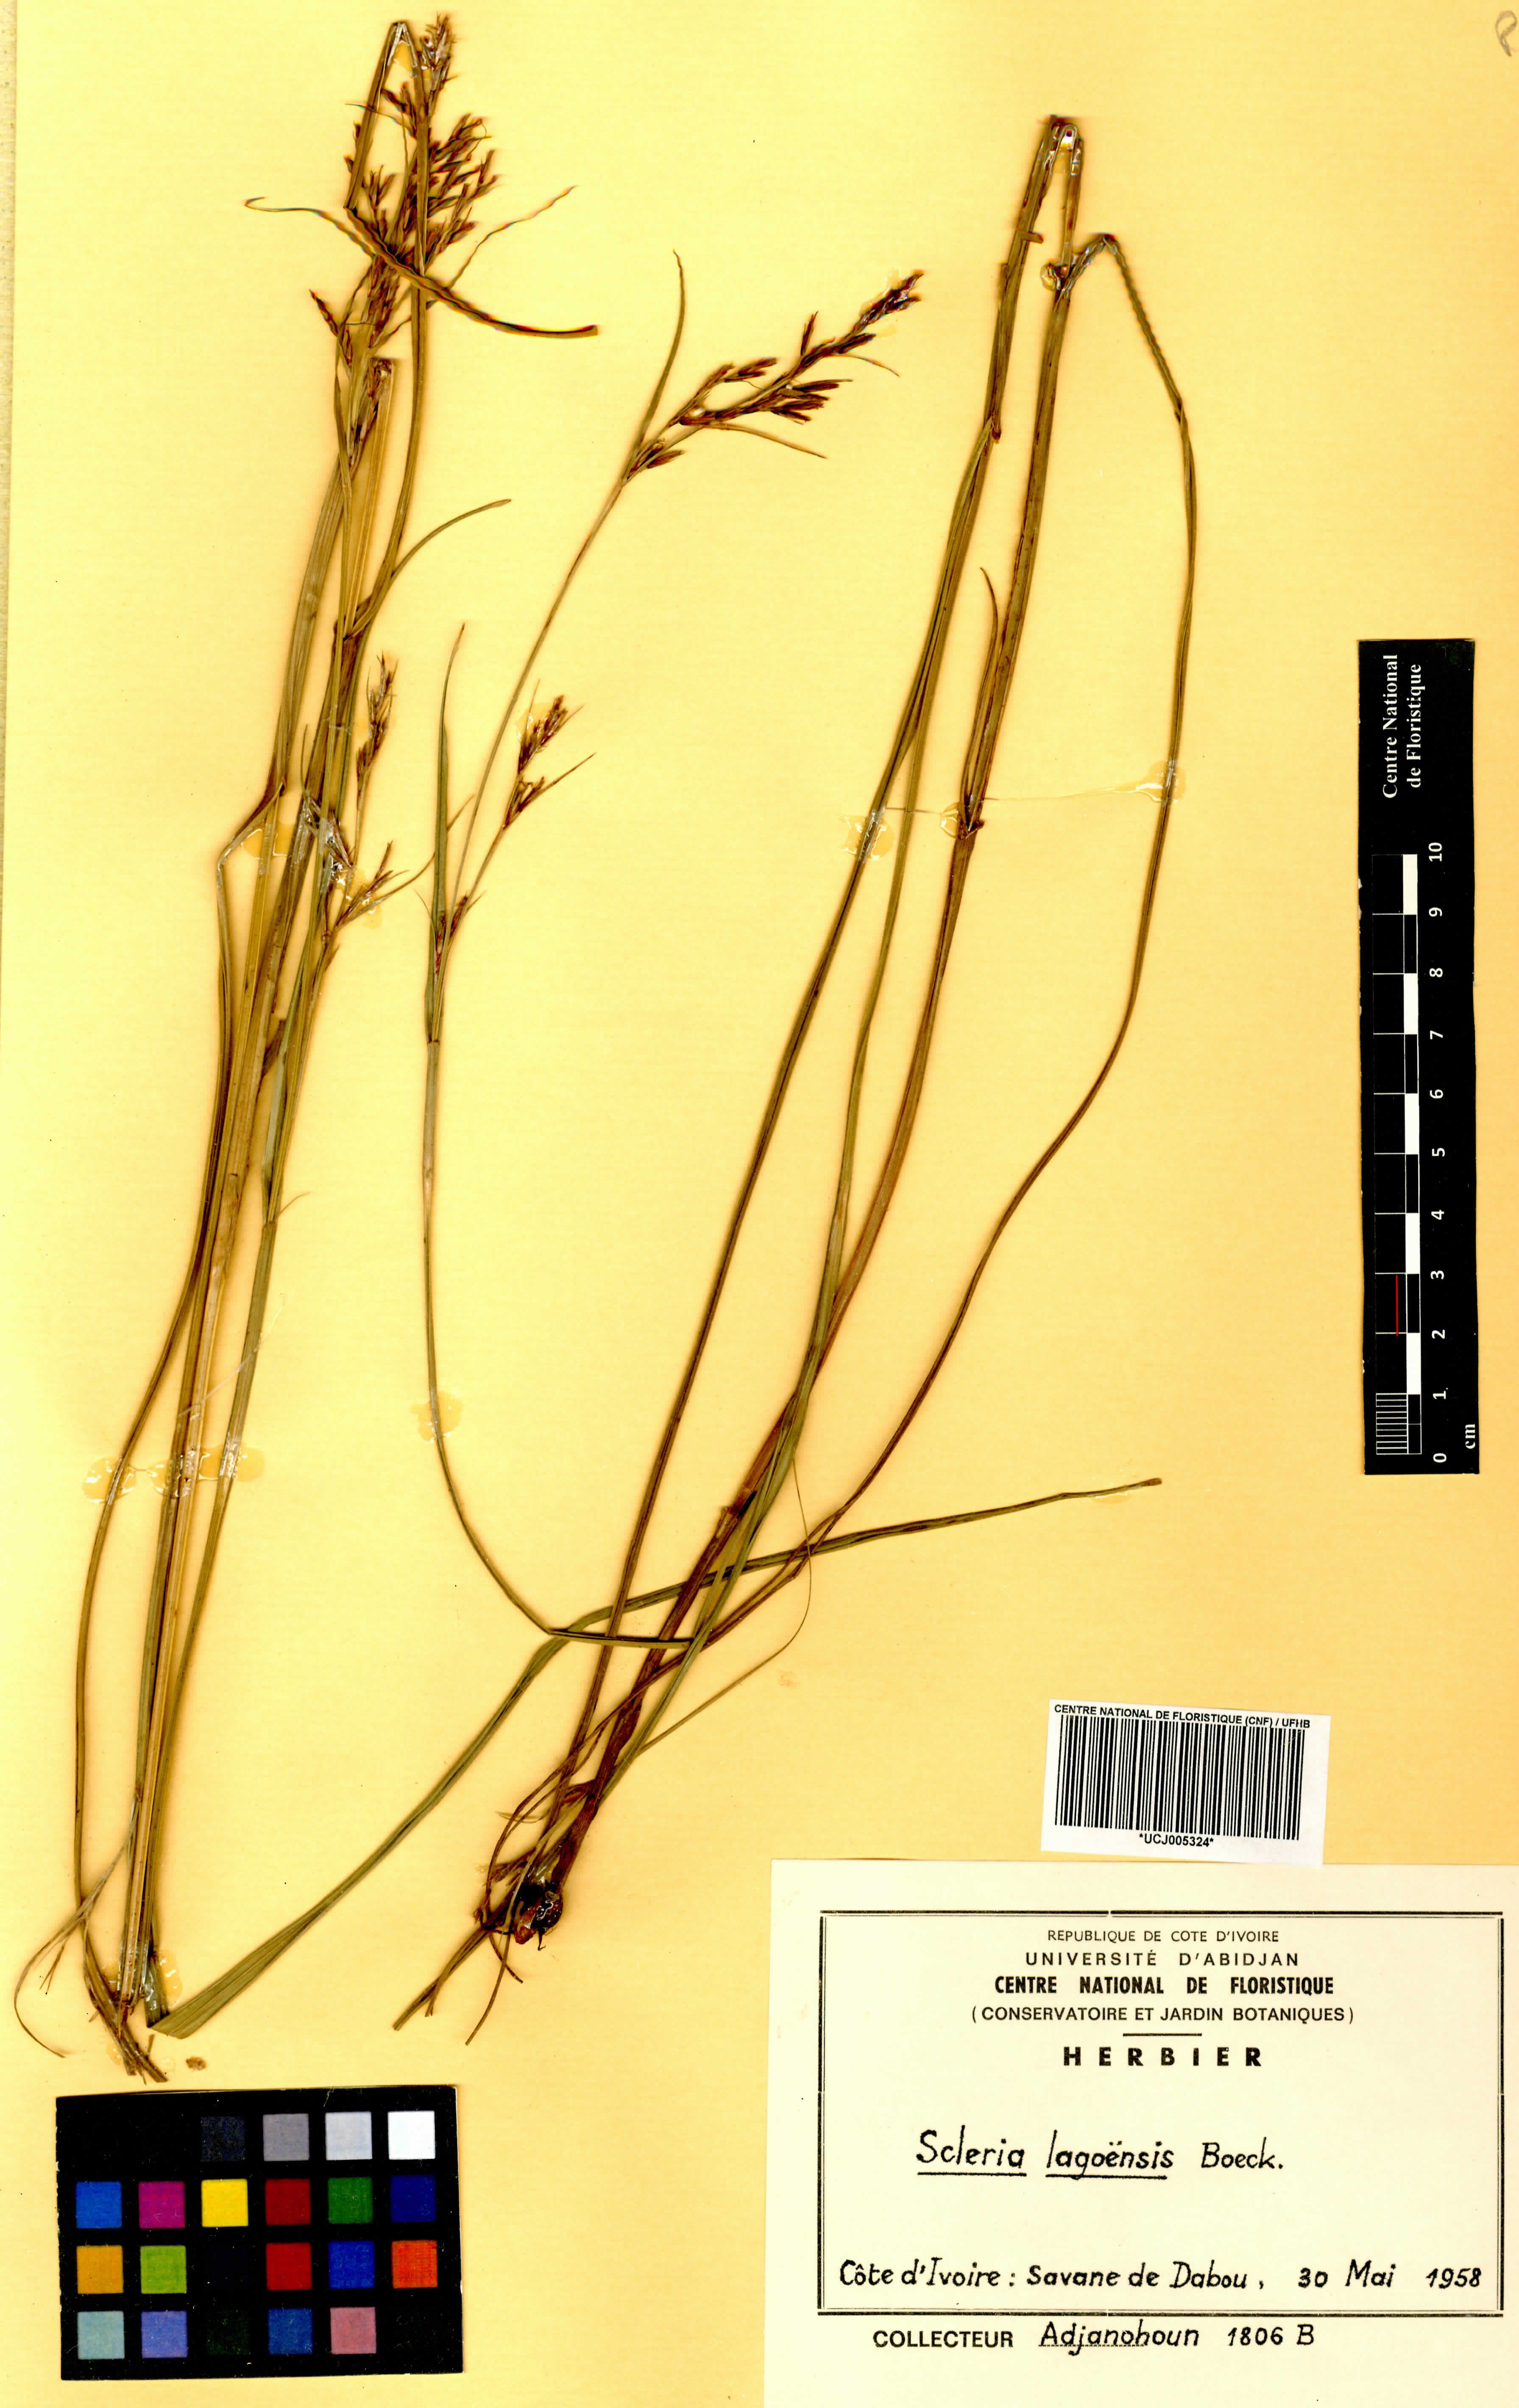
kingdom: Plantae
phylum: Tracheophyta
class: Liliopsida
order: Poales
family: Cyperaceae
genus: Scleria
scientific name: Scleria lagoensis
